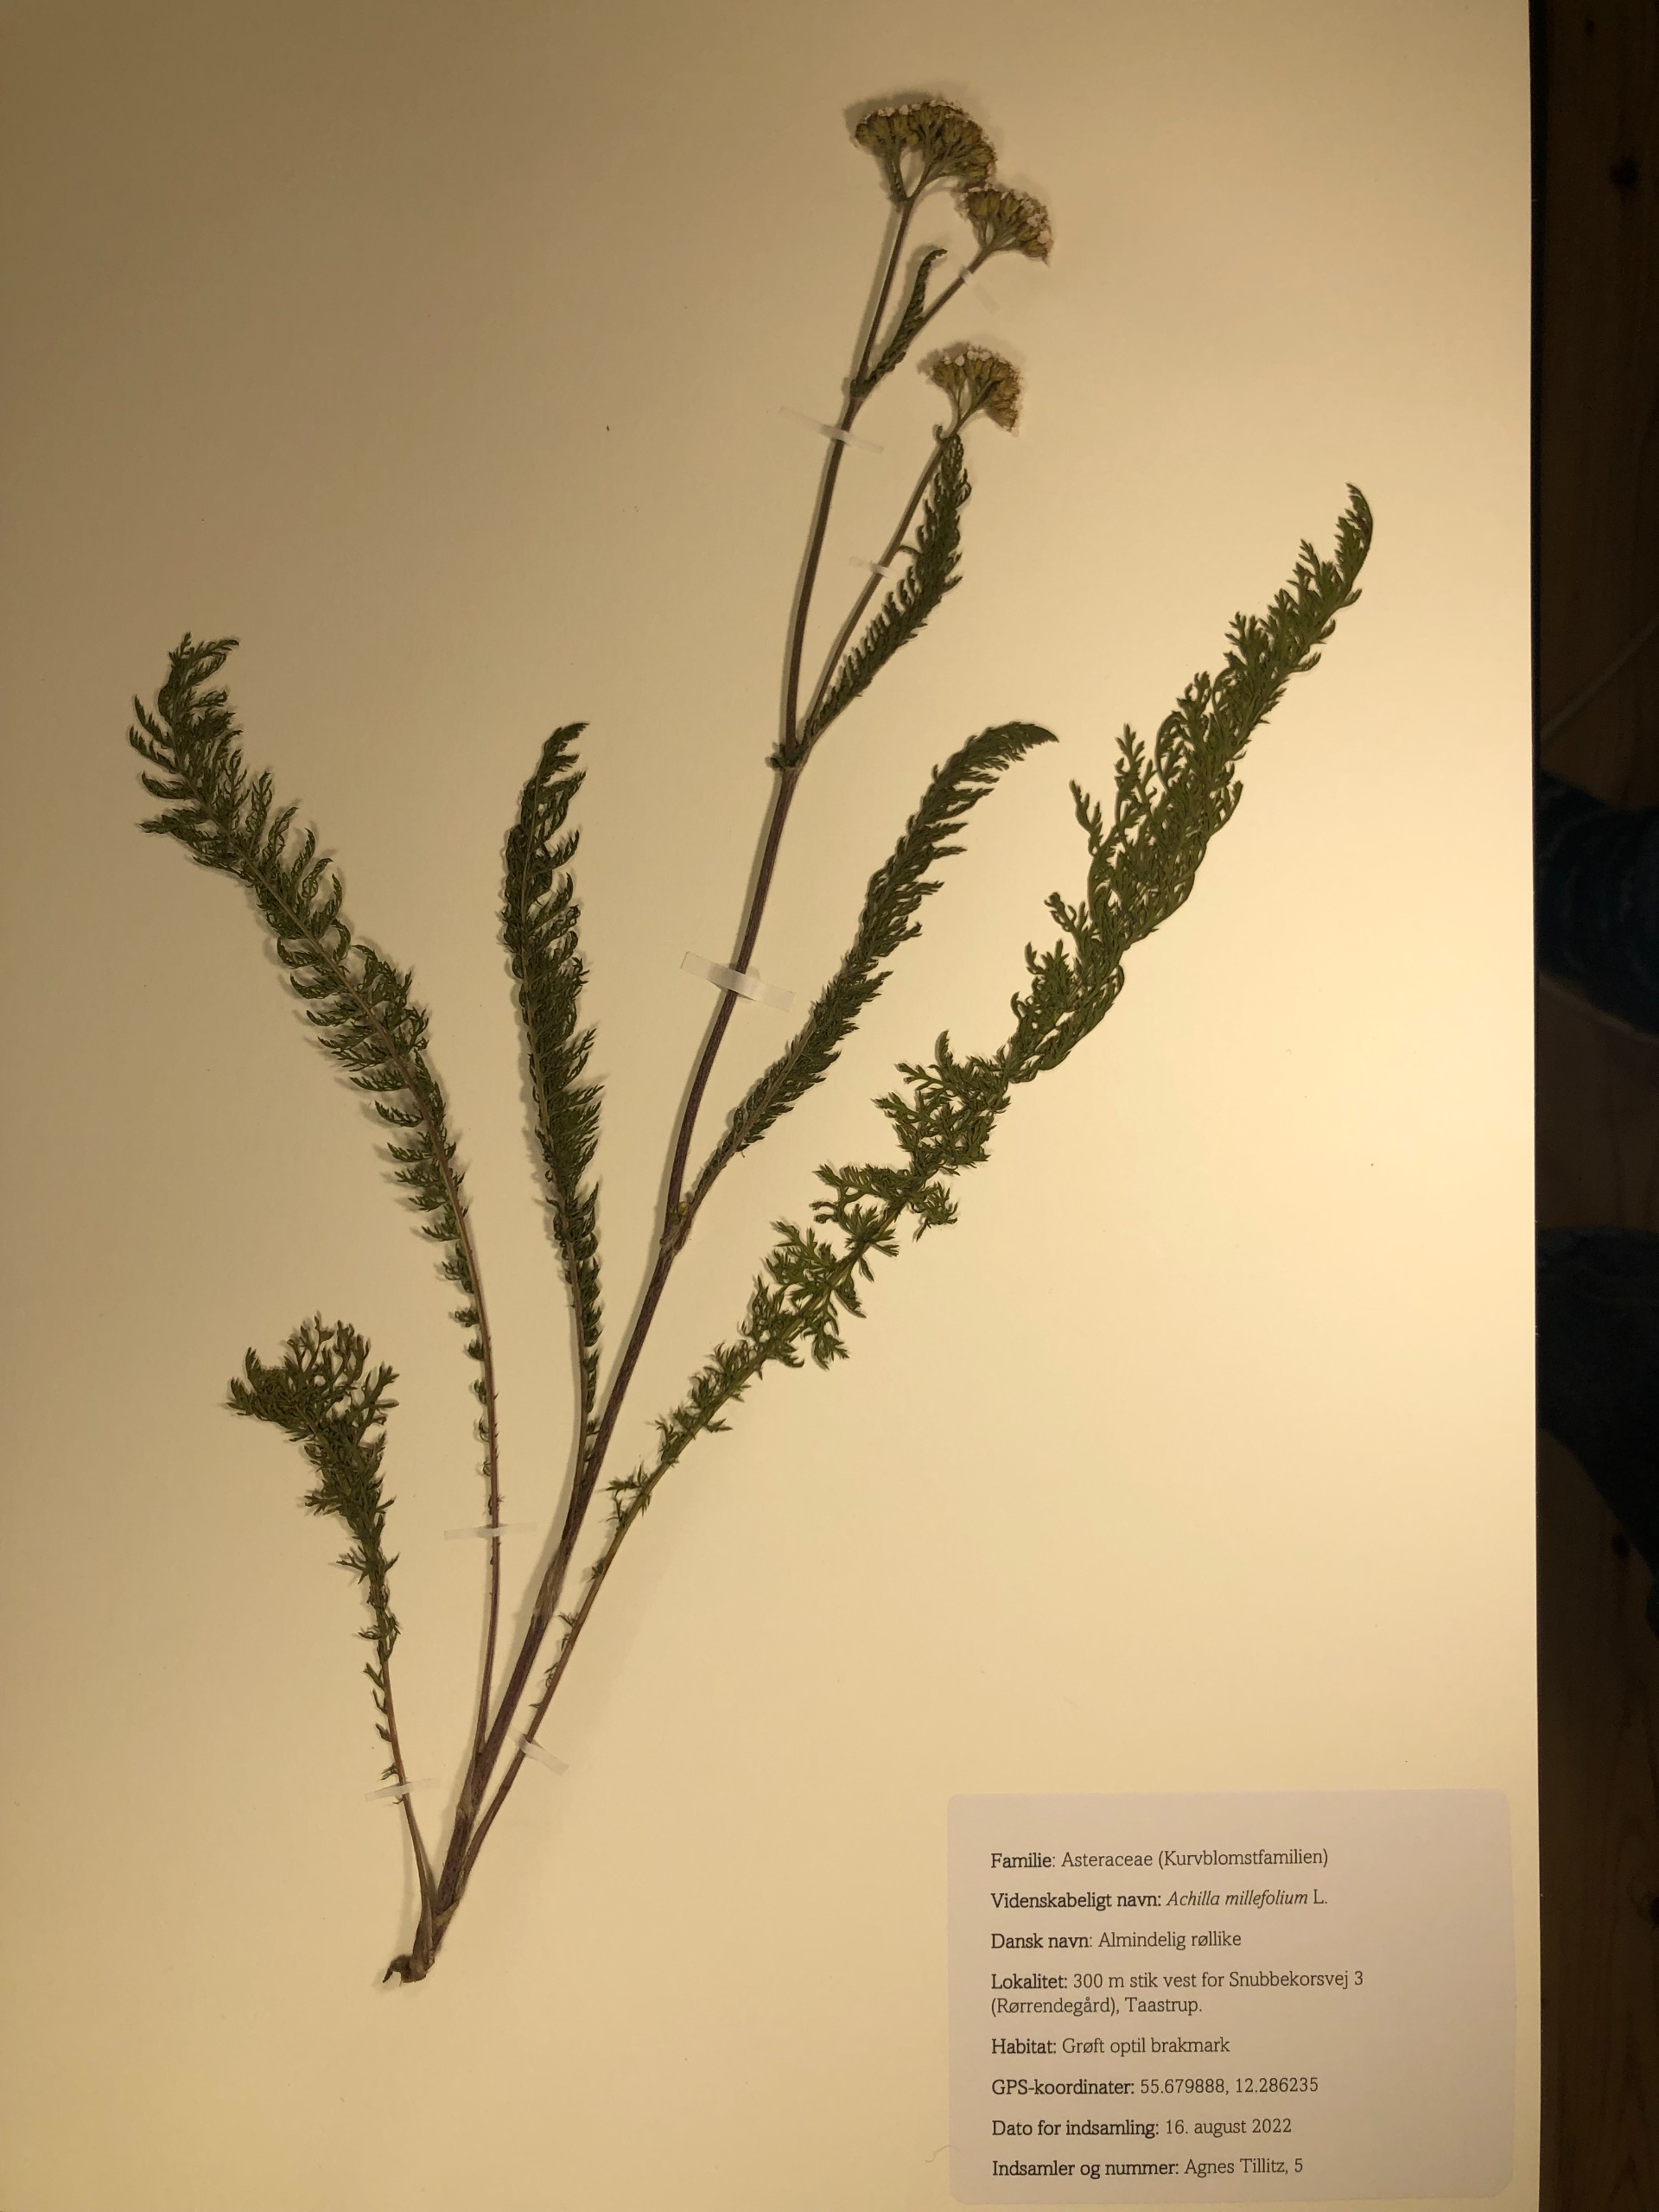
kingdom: Plantae
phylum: Tracheophyta
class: Magnoliopsida
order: Asterales
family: Asteraceae
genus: Achillea
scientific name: Achillea millefolium
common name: Almindelig røllike
